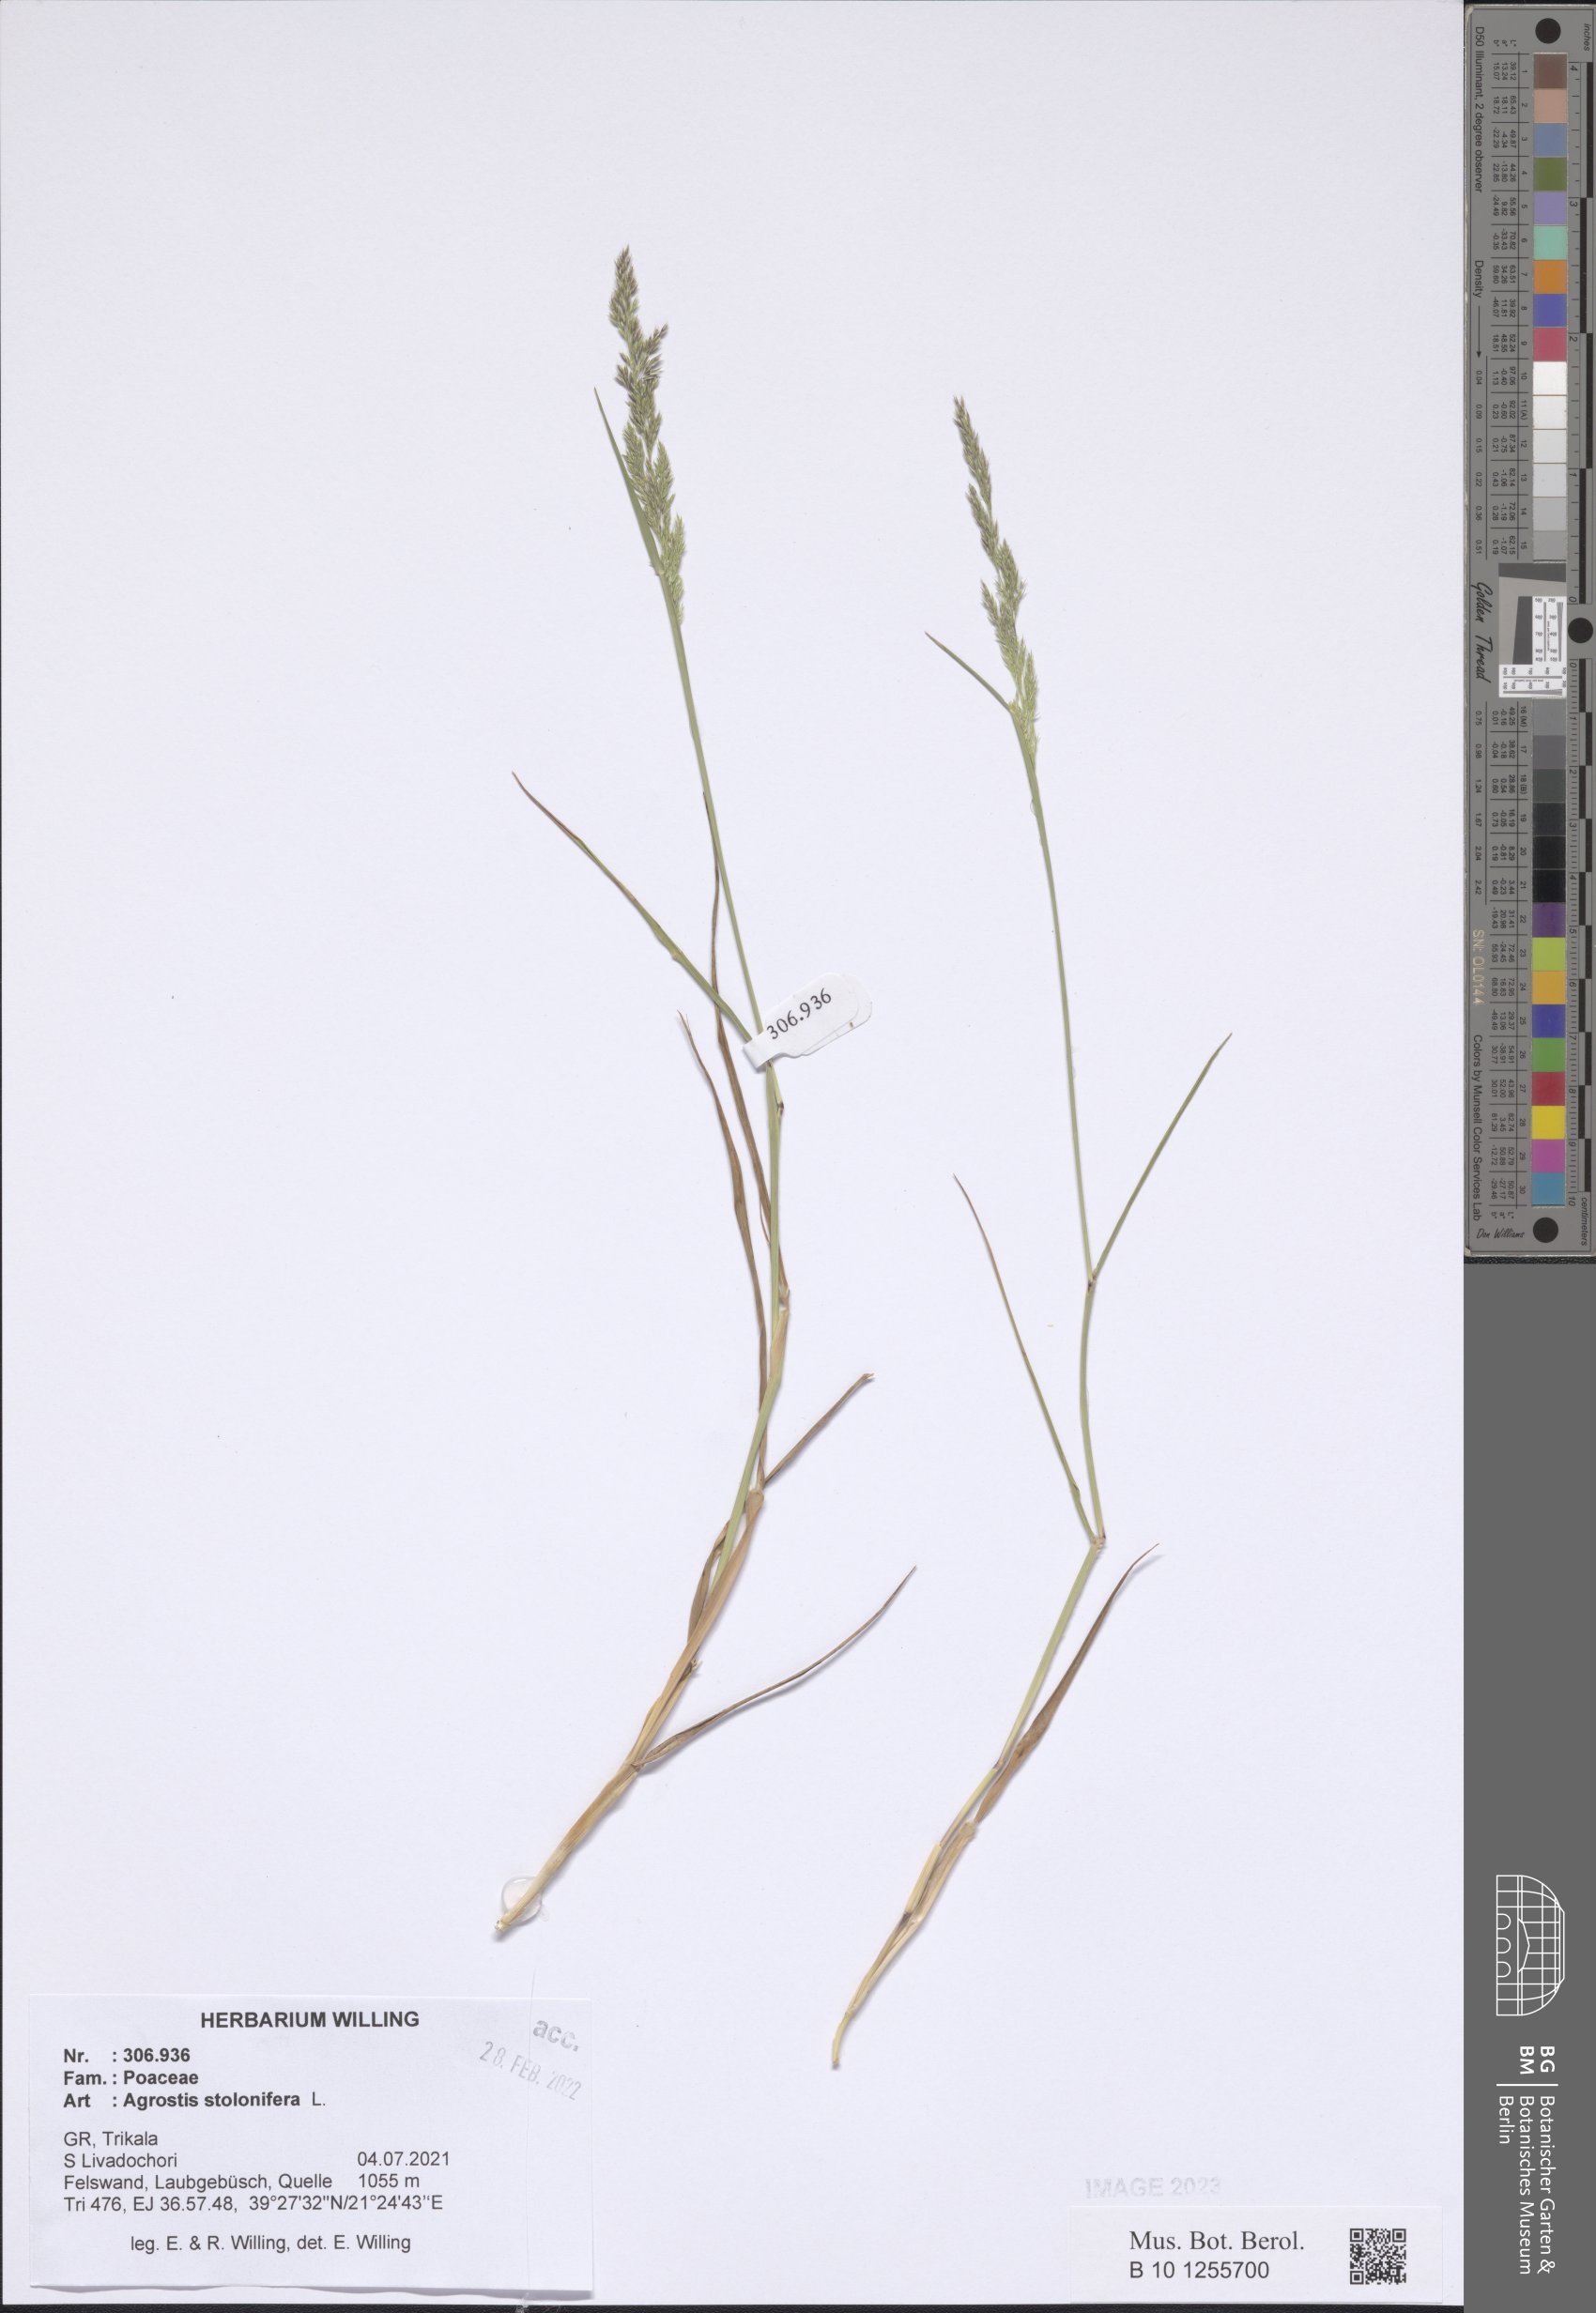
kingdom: Plantae
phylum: Tracheophyta
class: Liliopsida
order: Poales
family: Poaceae
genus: Agrostis
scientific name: Agrostis stolonifera
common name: Creeping bentgrass
